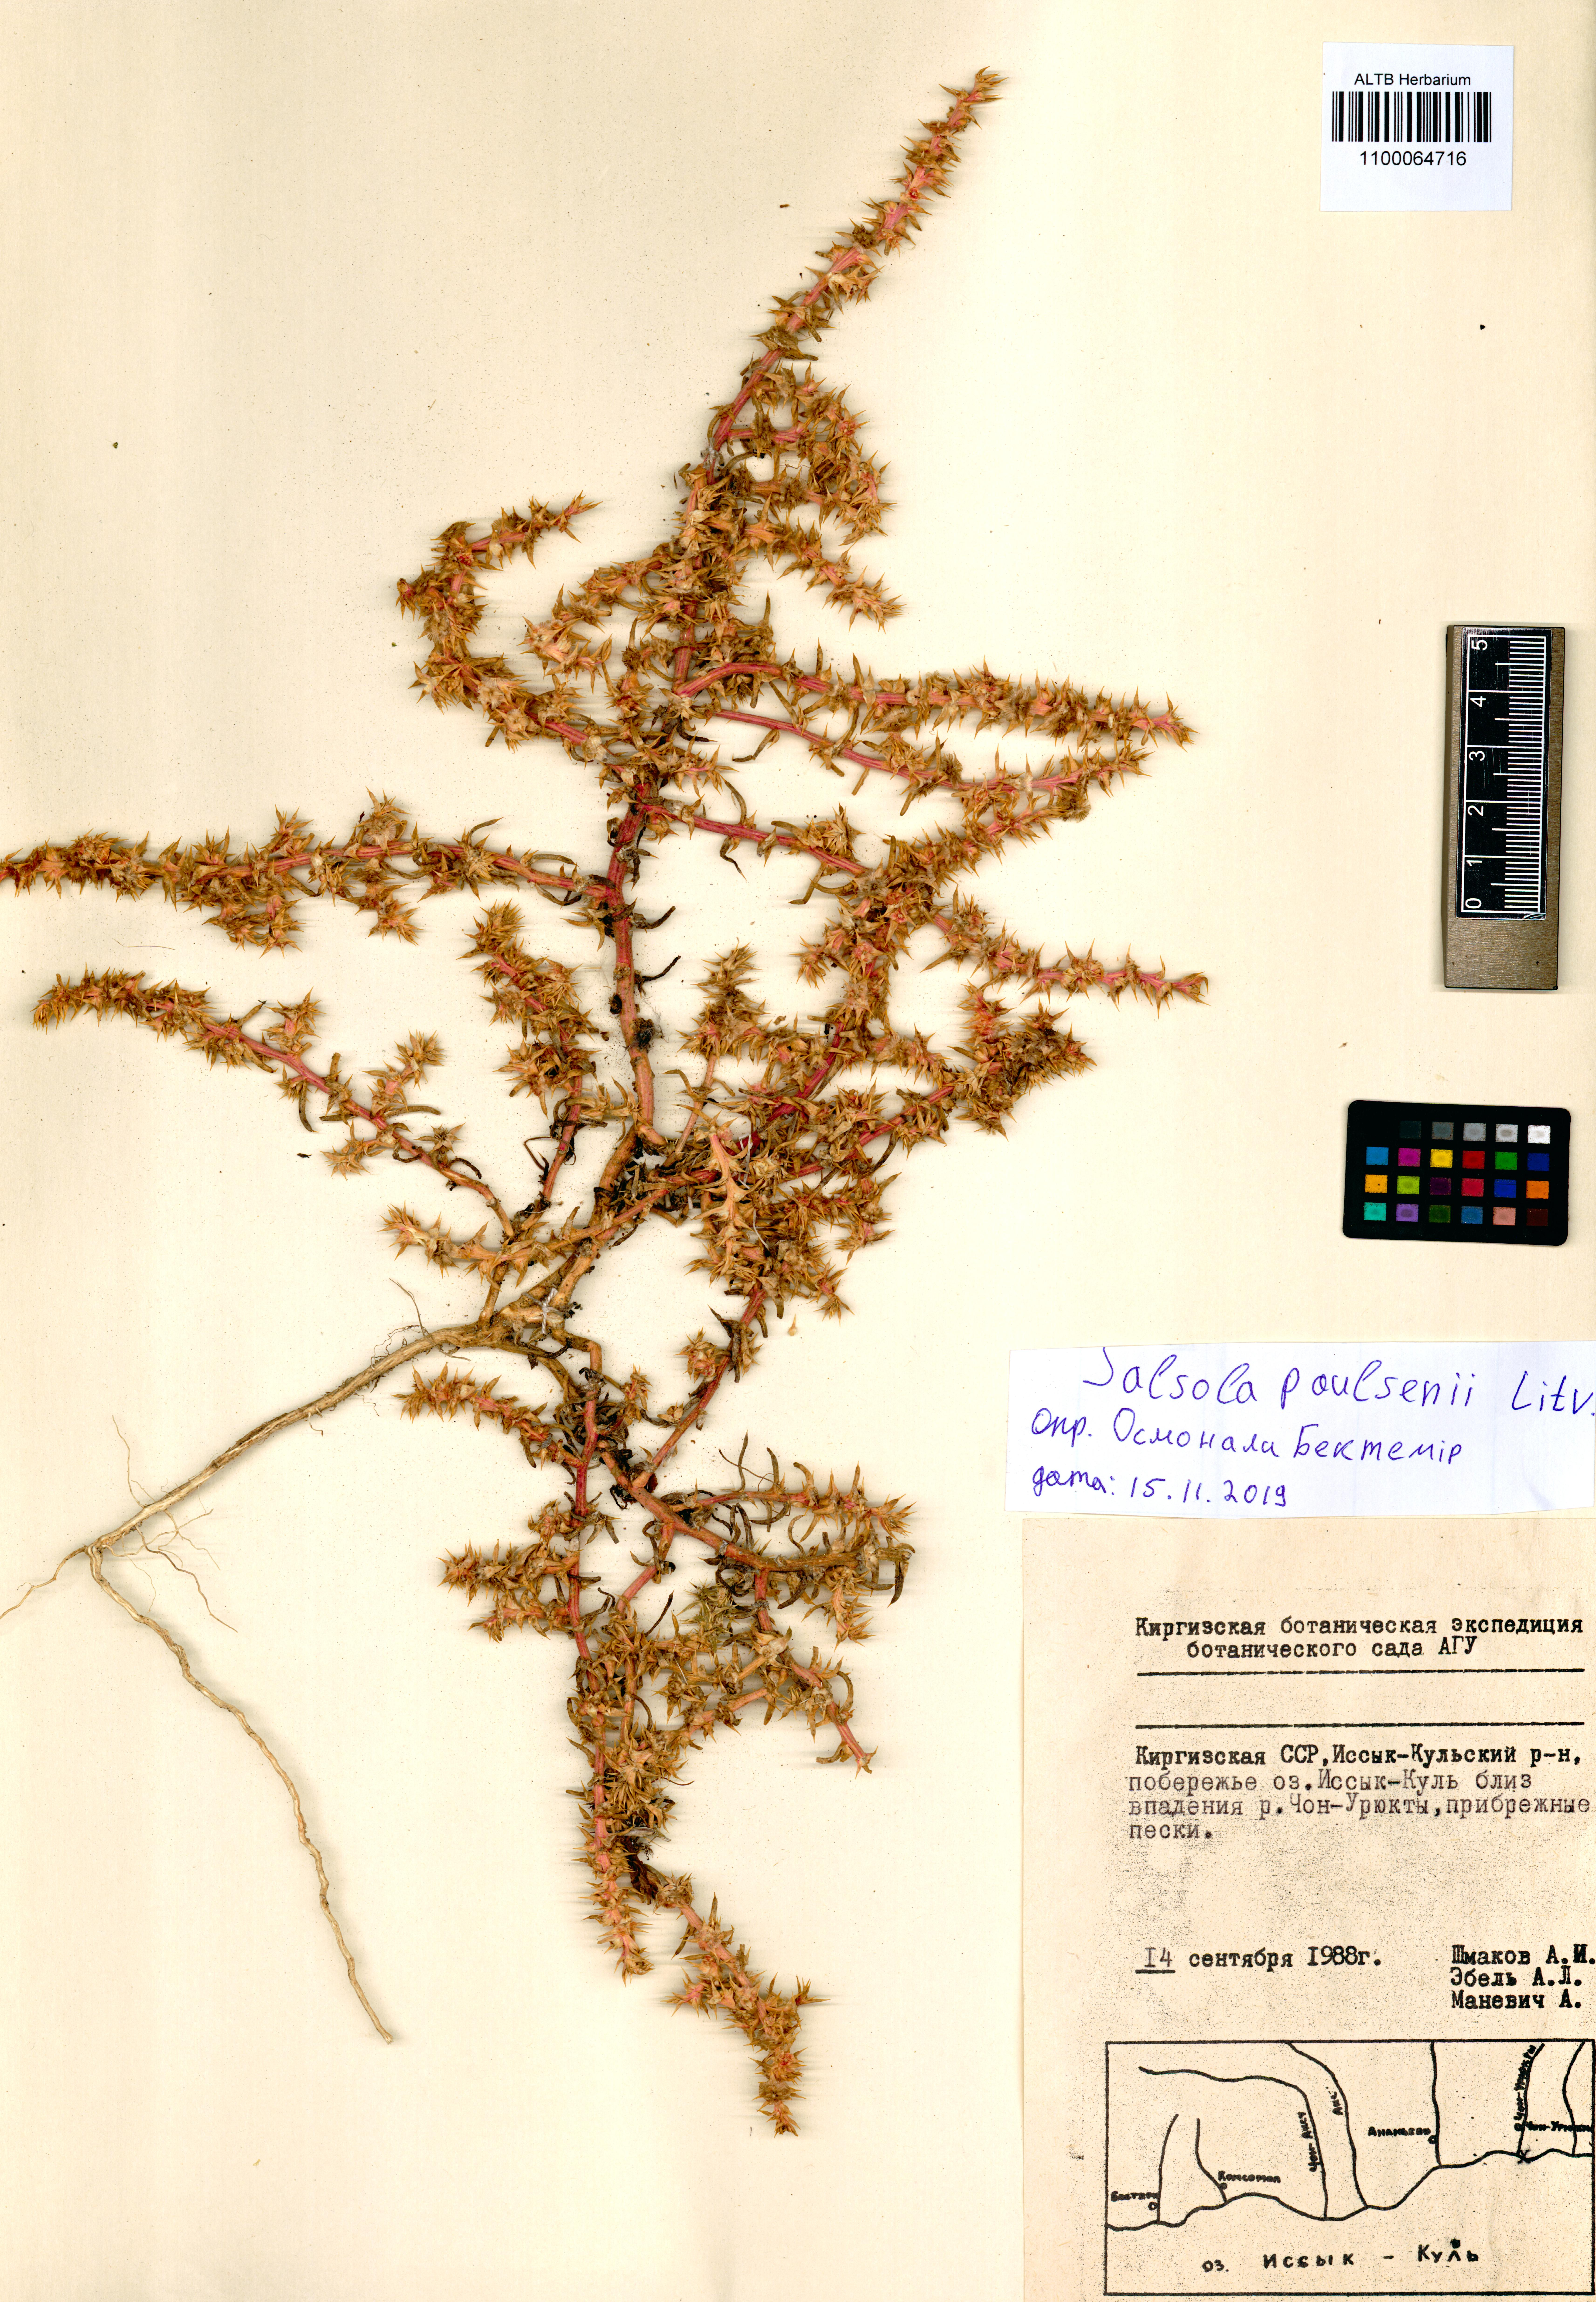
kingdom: Plantae
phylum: Tracheophyta
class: Magnoliopsida
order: Caryophyllales
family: Amaranthaceae
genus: Salsola
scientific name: Salsola paulsenii
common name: Barbwire russian thistle
